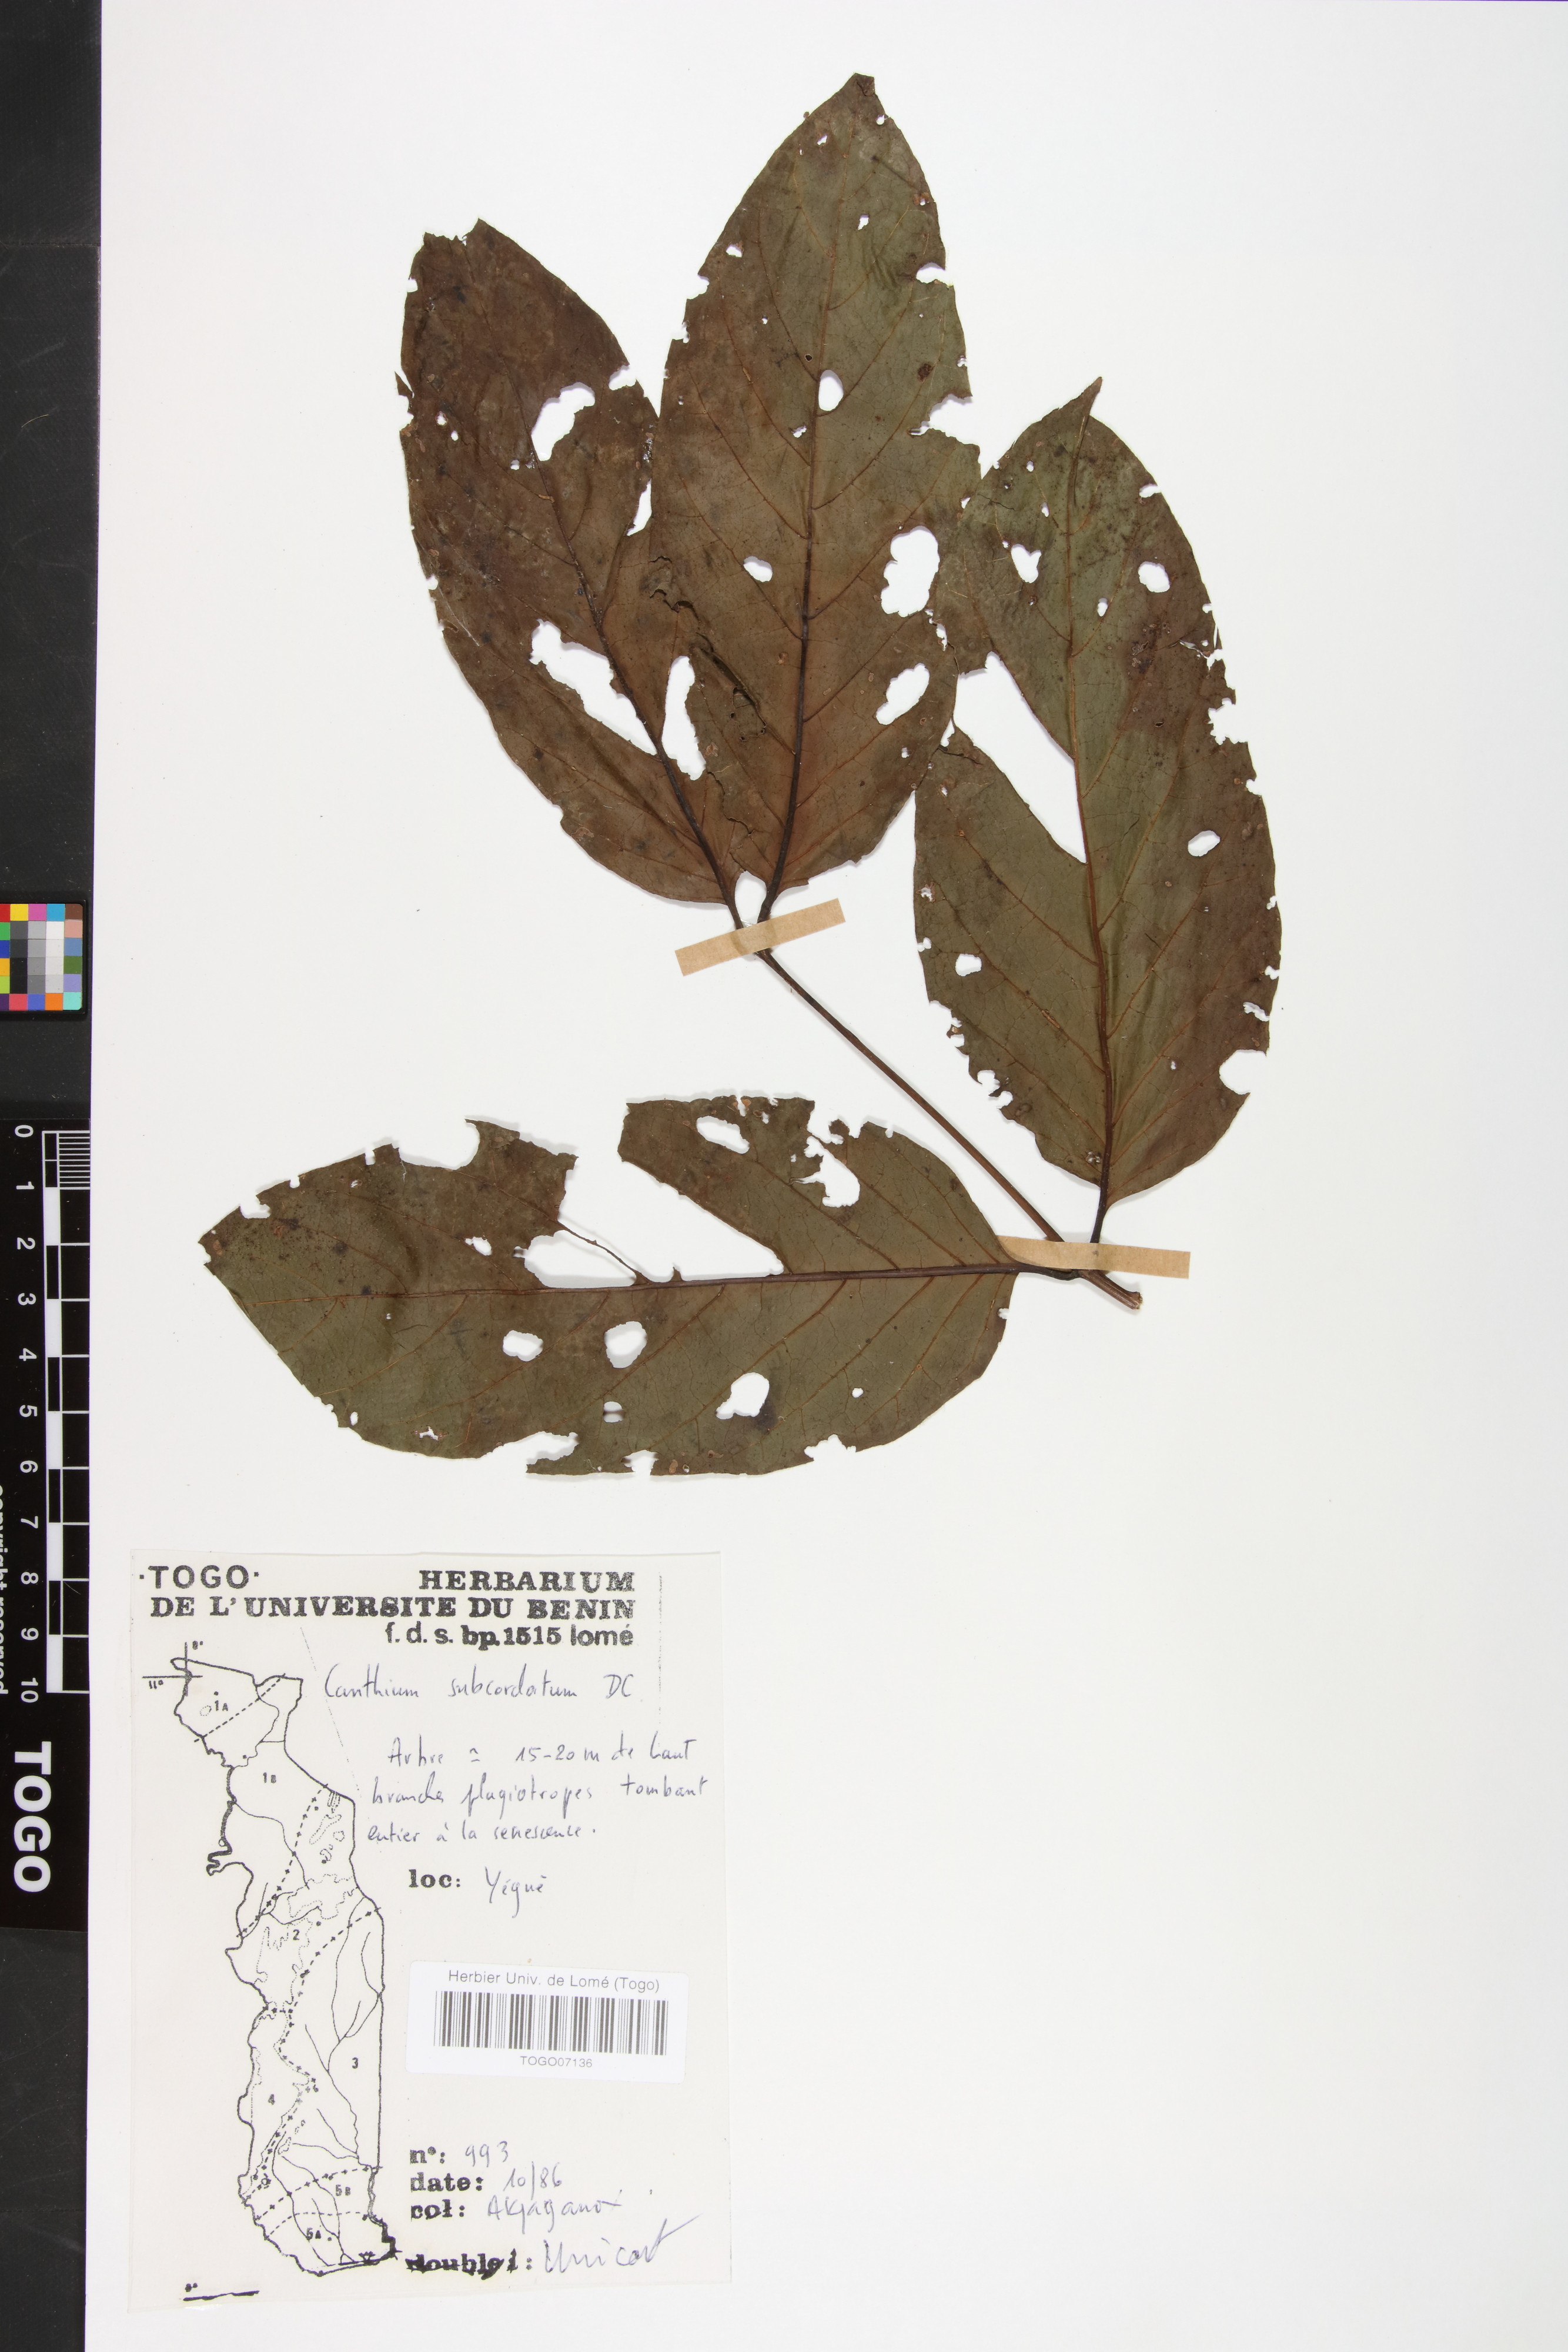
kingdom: Plantae
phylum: Tracheophyta
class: Magnoliopsida
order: Gentianales
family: Rubiaceae
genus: Psydrax
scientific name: Psydrax subcordatus
